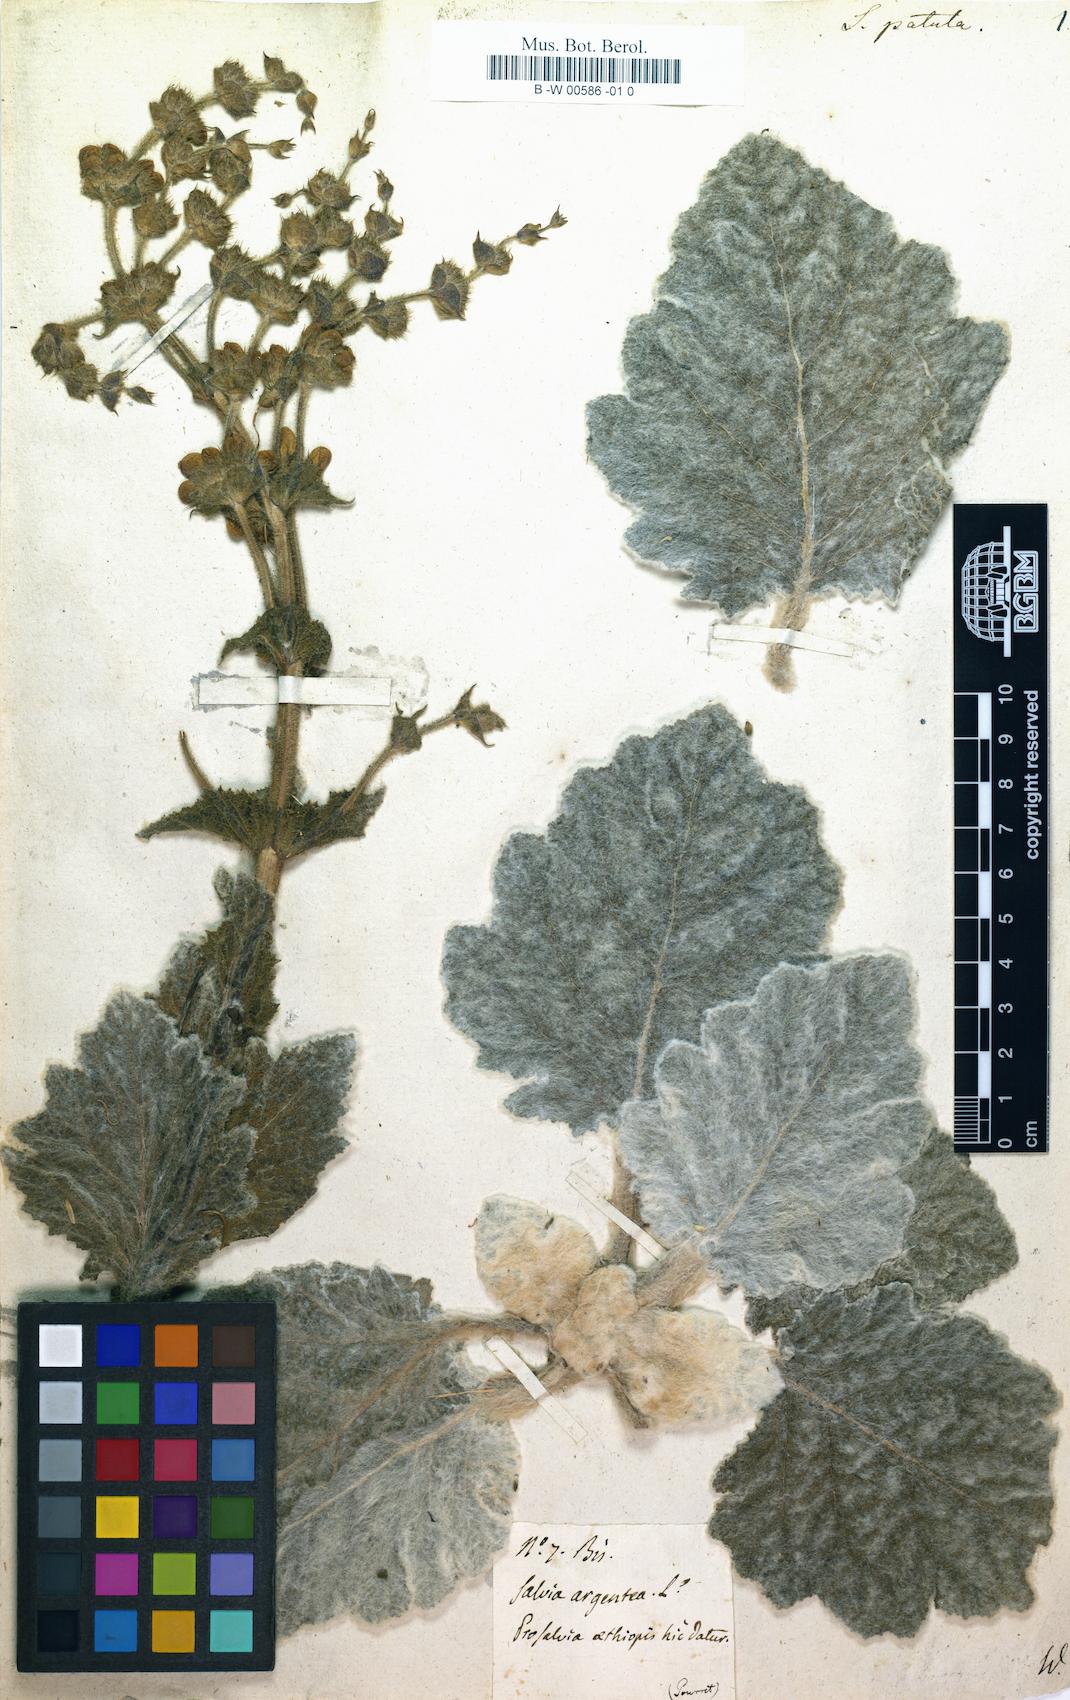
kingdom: Plantae
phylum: Tracheophyta
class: Magnoliopsida
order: Lamiales
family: Lamiaceae
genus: Salvia
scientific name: Salvia argentea
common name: Silver sage
